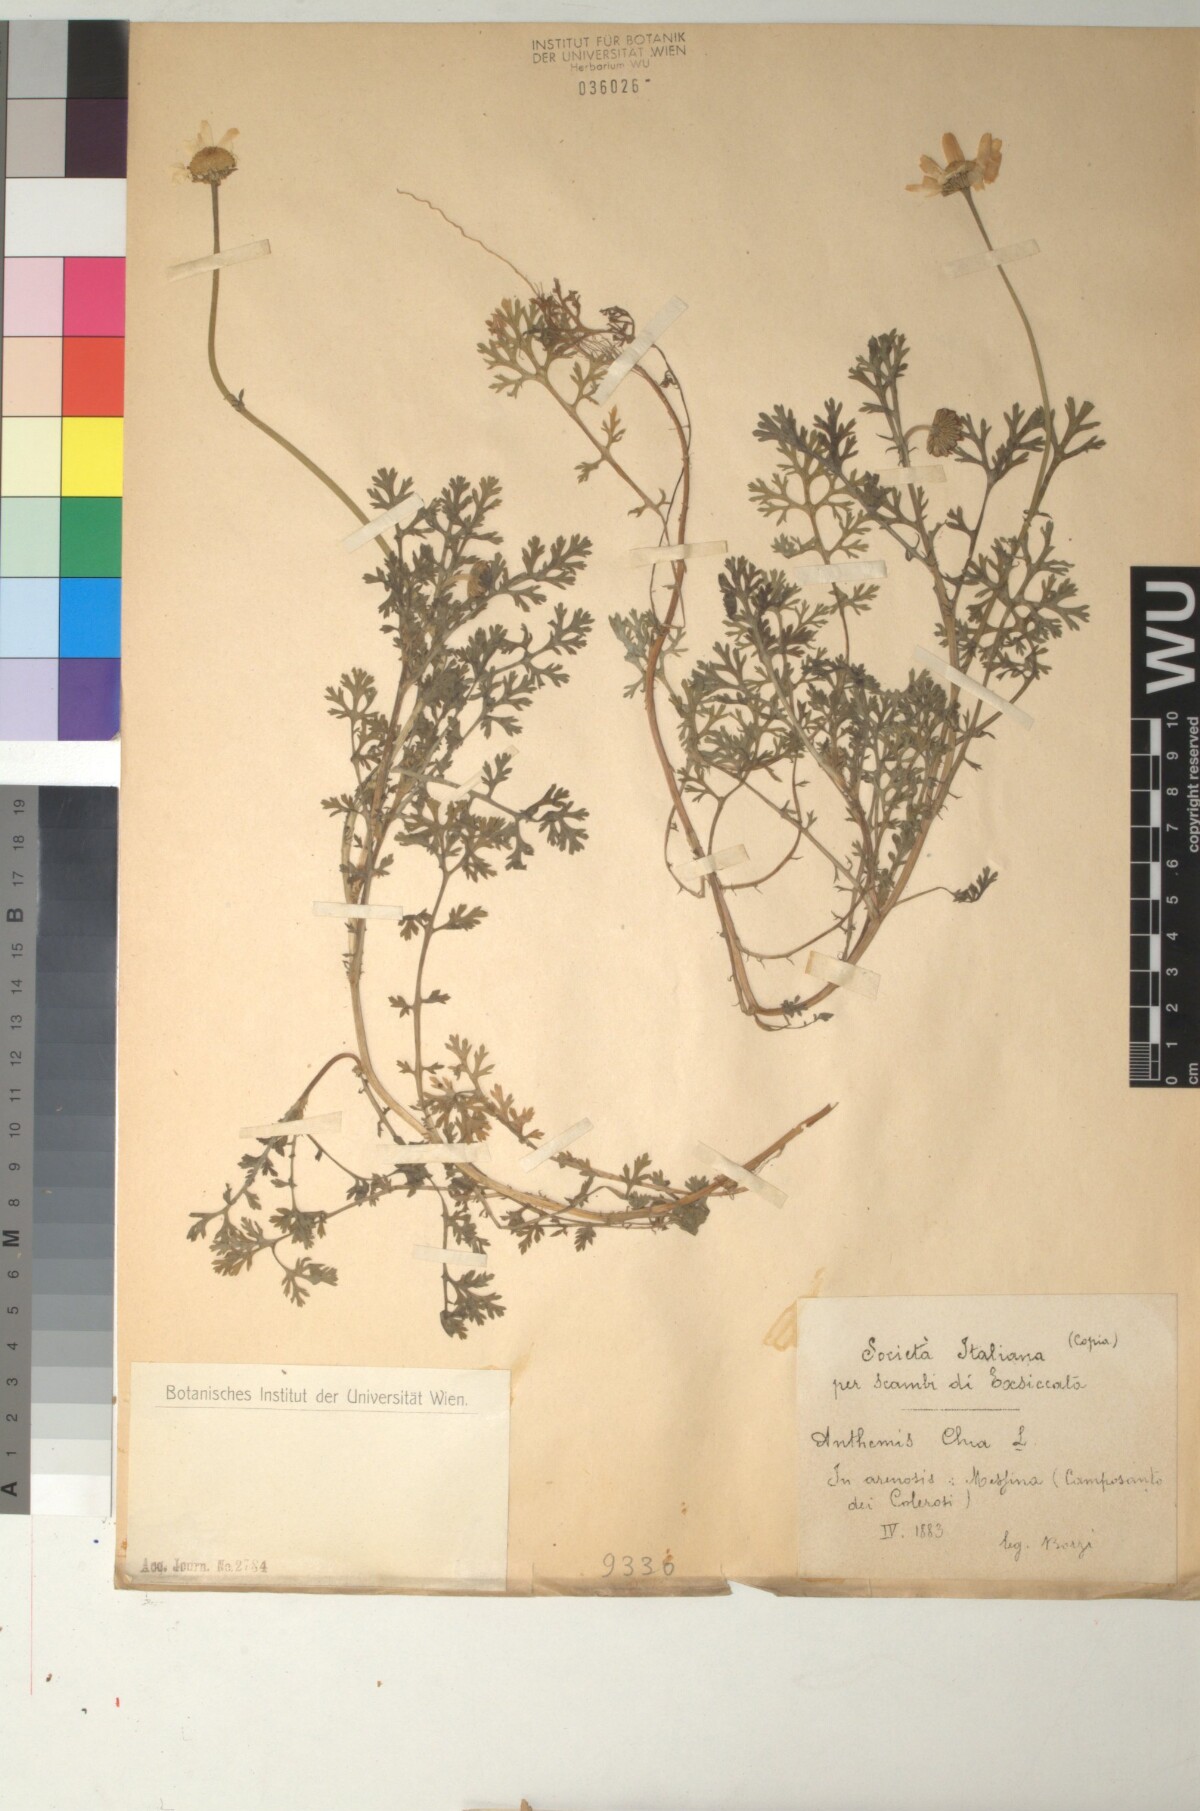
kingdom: Plantae
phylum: Tracheophyta
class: Magnoliopsida
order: Asterales
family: Asteraceae
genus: Anthemis
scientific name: Anthemis chia
